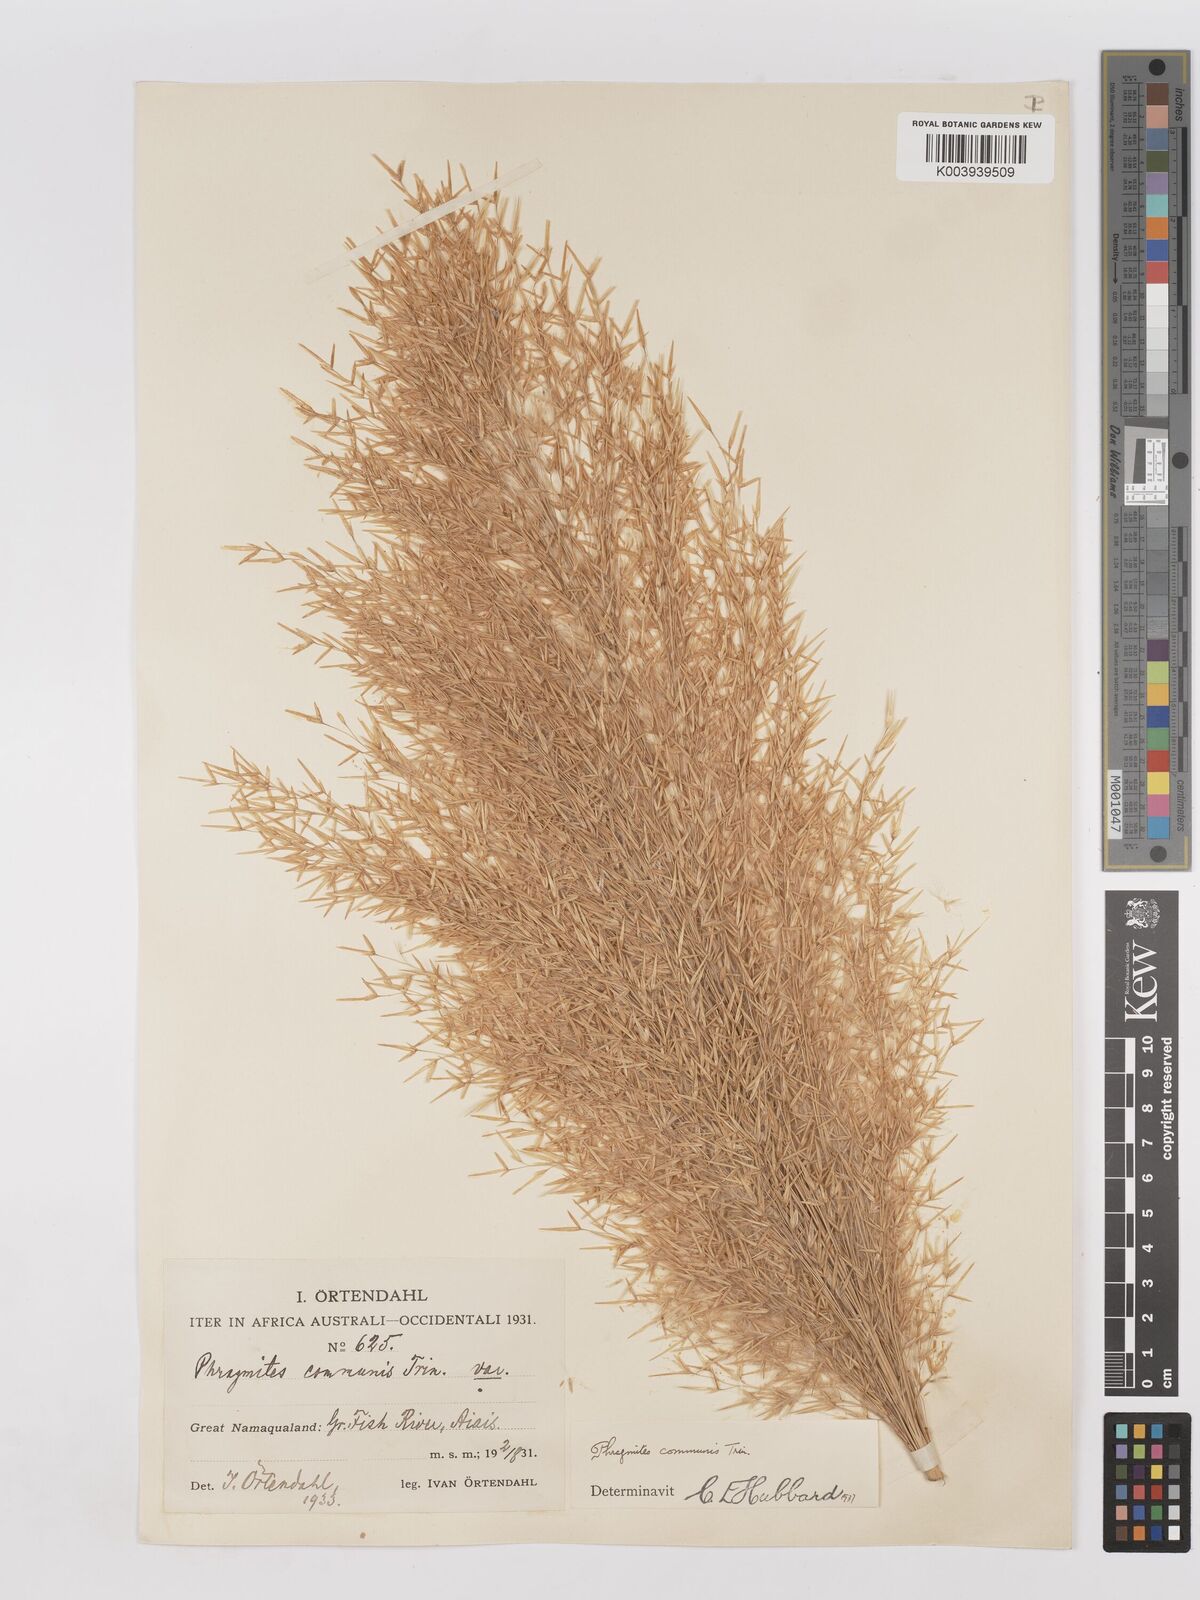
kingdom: Plantae
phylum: Tracheophyta
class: Liliopsida
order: Poales
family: Poaceae
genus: Phragmites
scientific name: Phragmites australis
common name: Common reed
